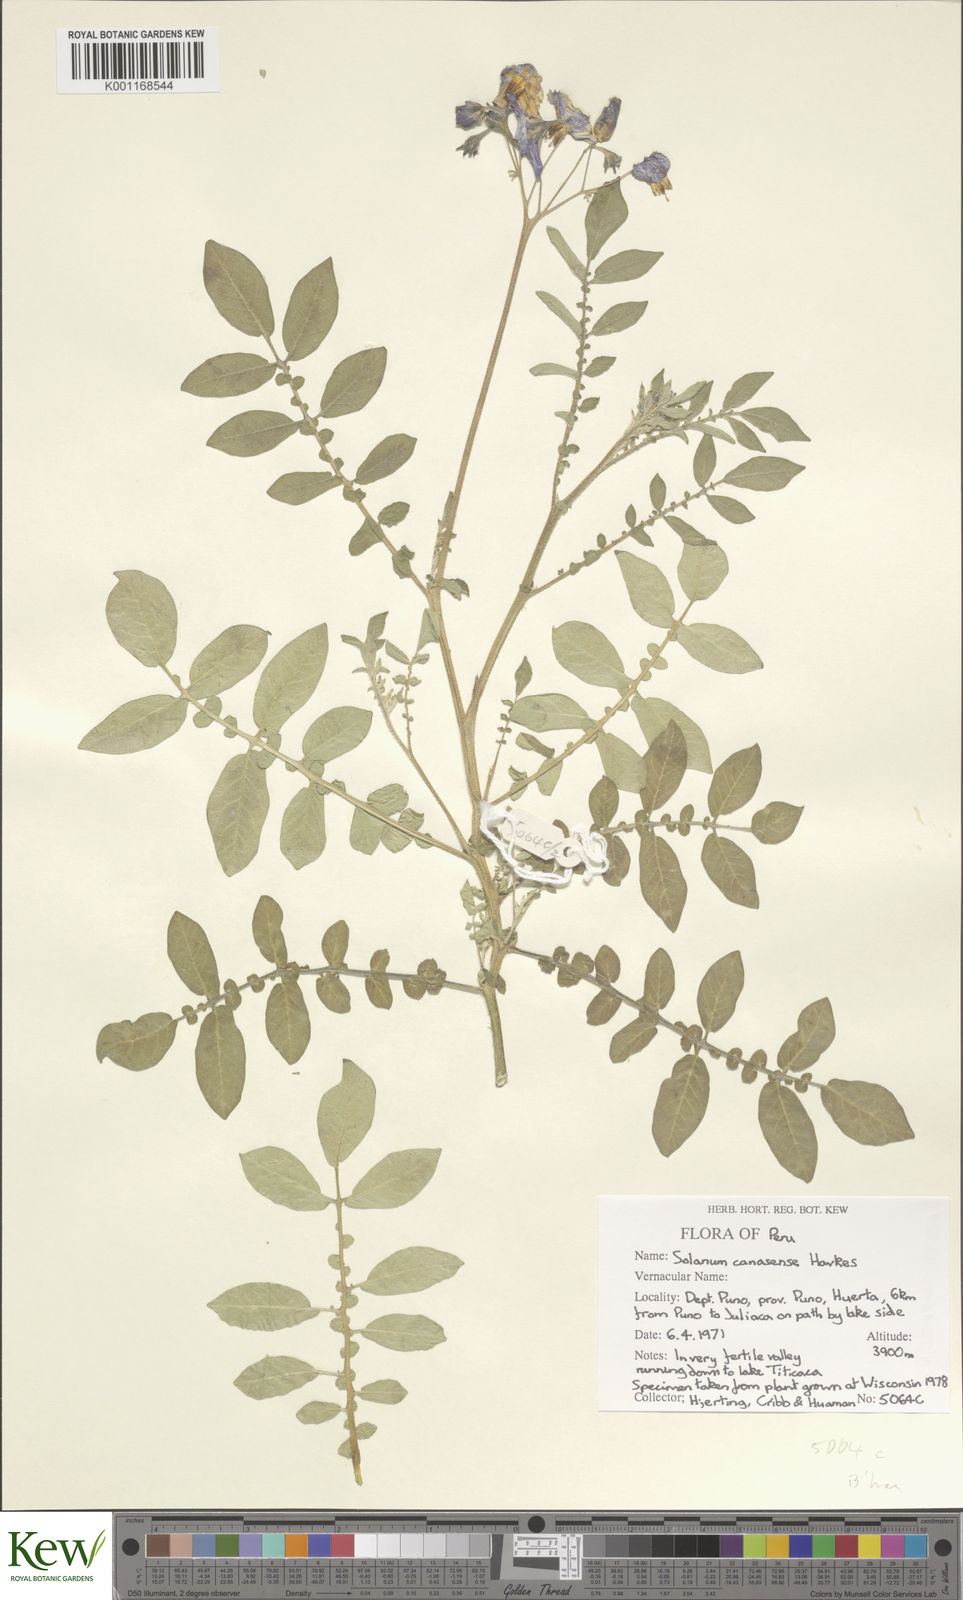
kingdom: Plantae
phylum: Tracheophyta
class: Magnoliopsida
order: Solanales
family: Solanaceae
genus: Solanum
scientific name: Solanum candolleanum
